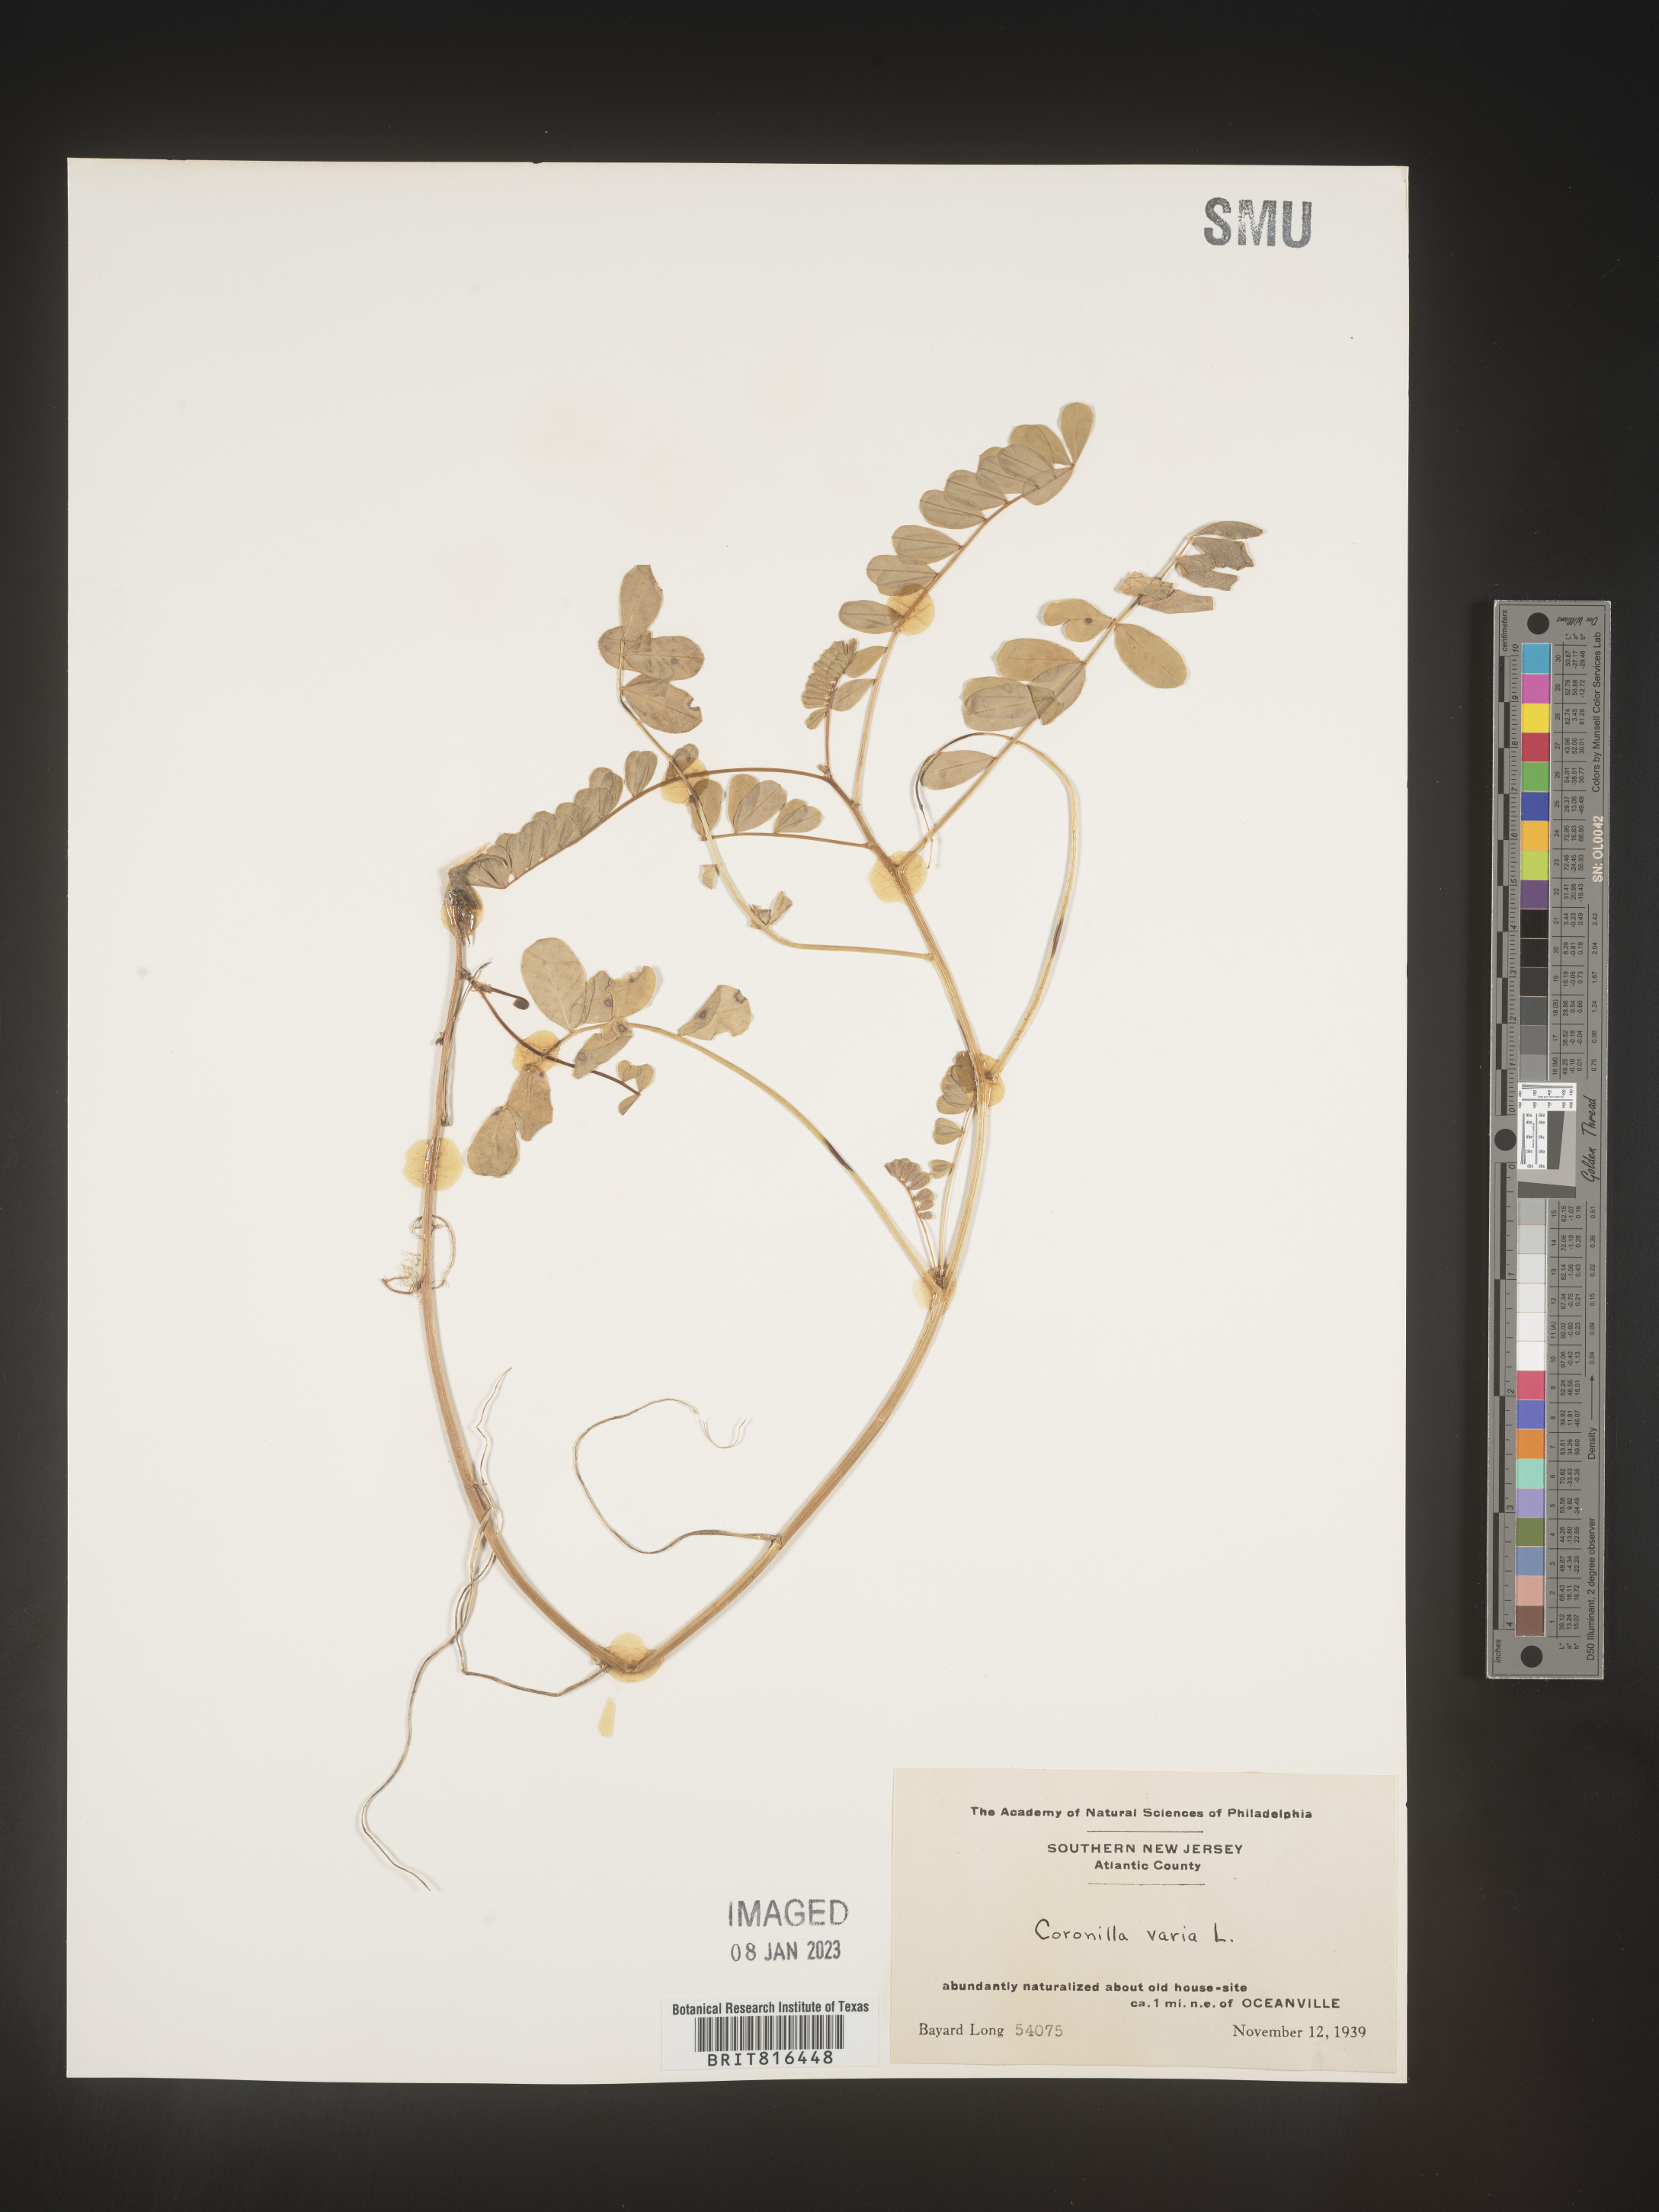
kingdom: Plantae
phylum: Tracheophyta
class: Magnoliopsida
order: Fabales
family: Fabaceae
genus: Coronilla
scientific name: Coronilla
